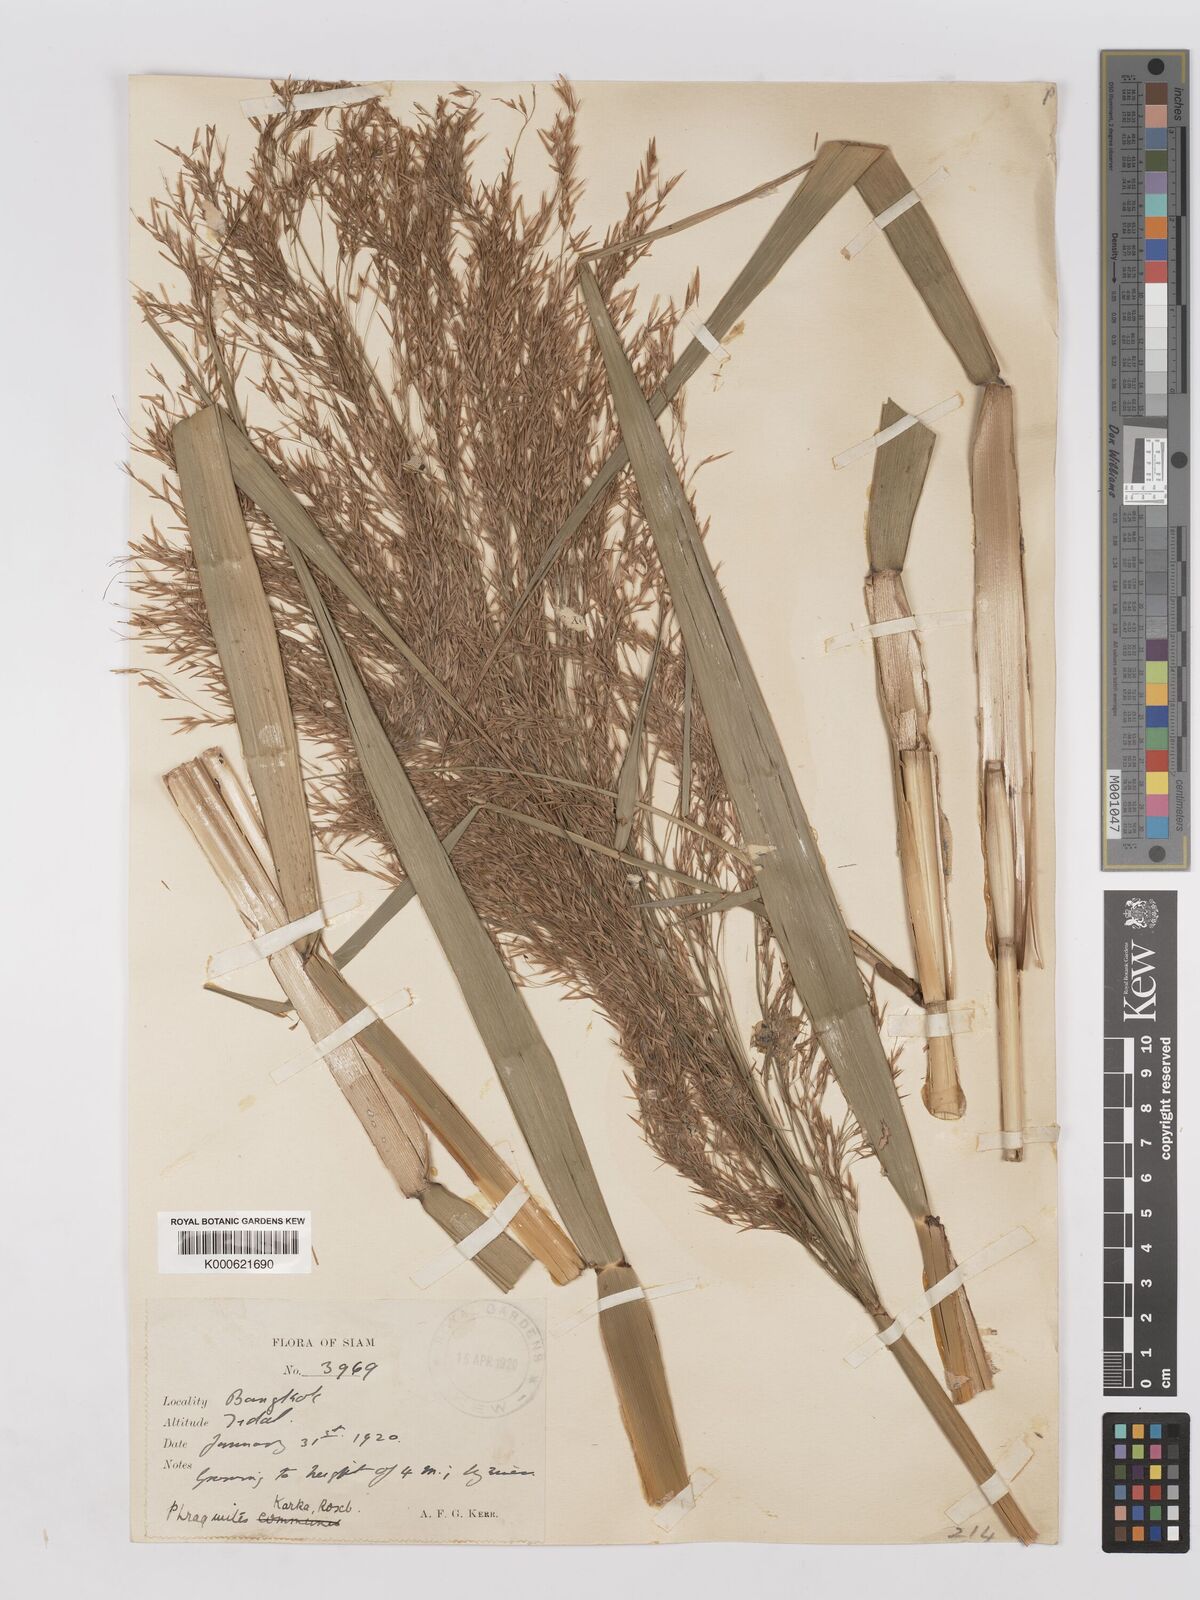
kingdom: Plantae
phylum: Tracheophyta
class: Liliopsida
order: Poales
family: Poaceae
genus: Phragmites
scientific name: Phragmites karka
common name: Tropical reed
